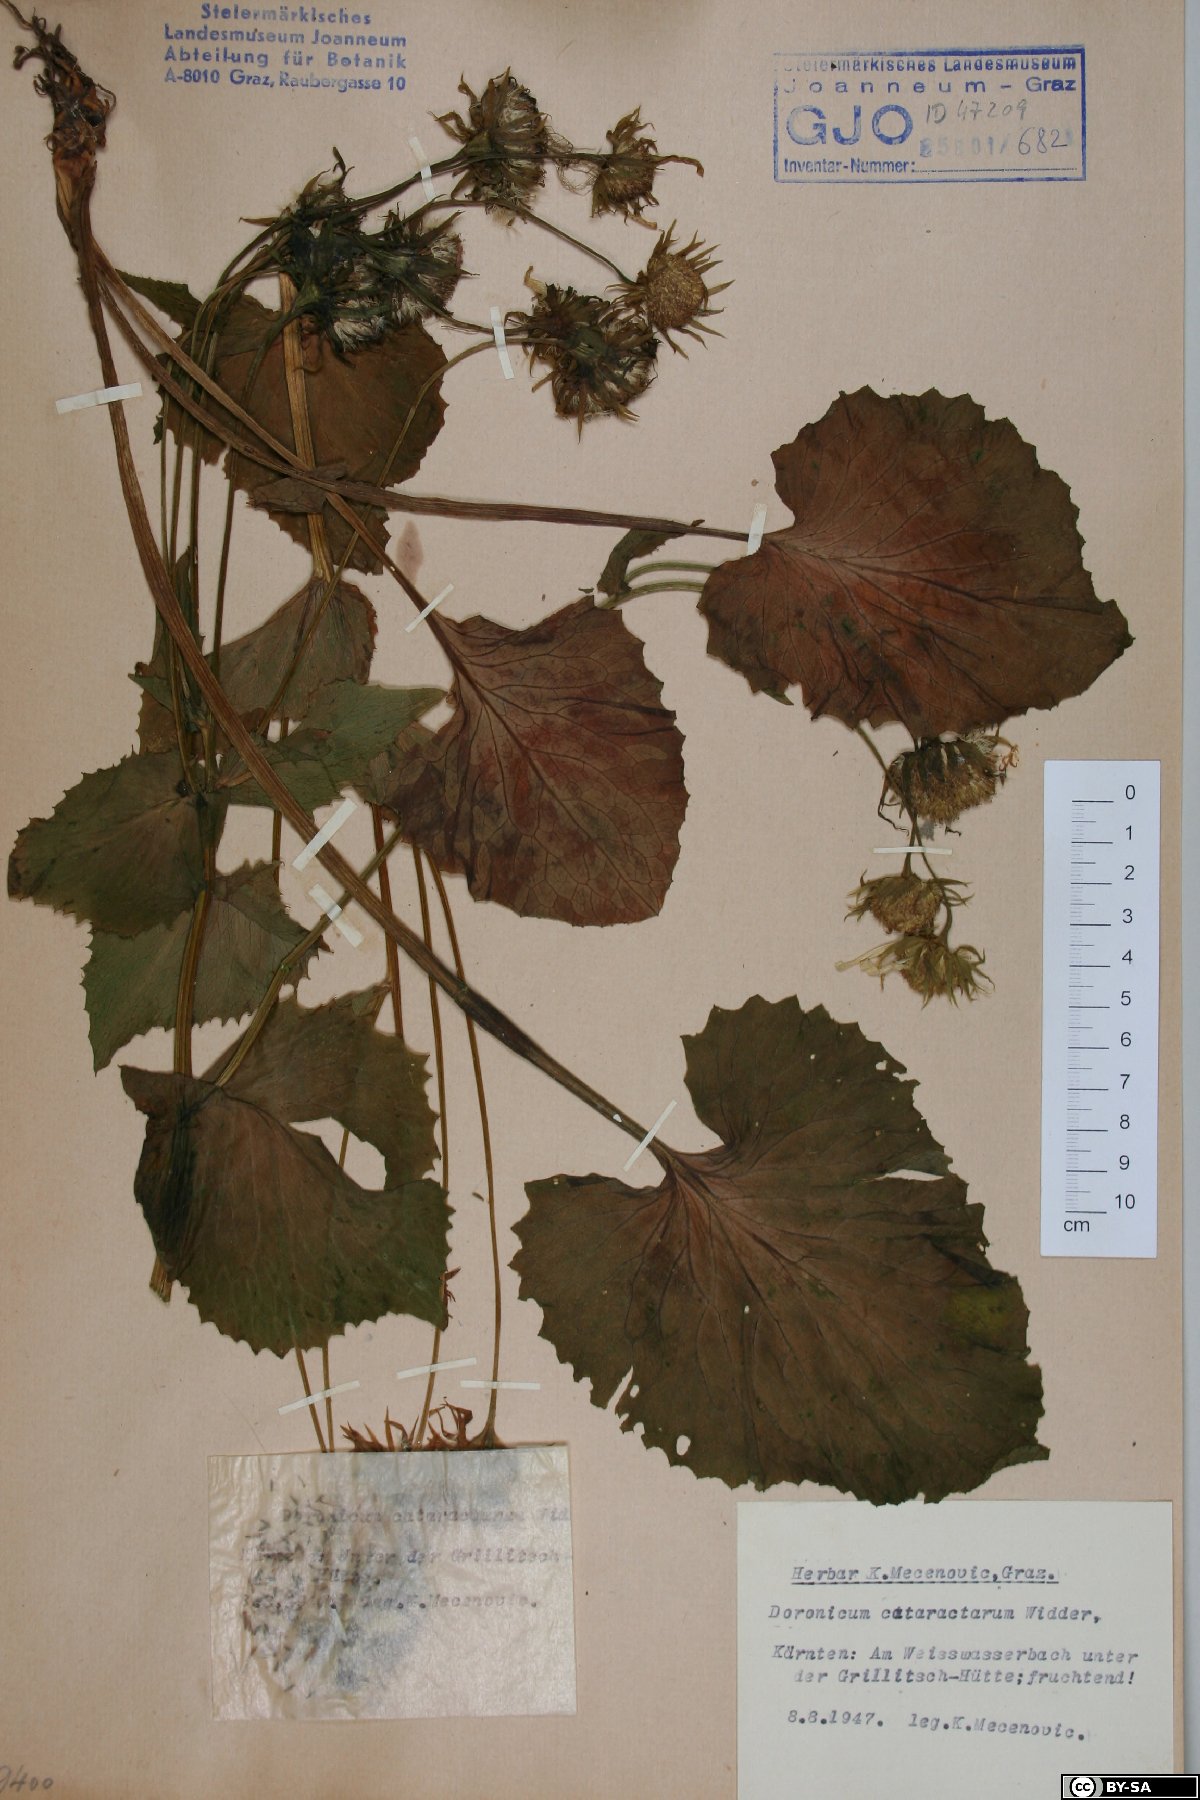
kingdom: Plantae
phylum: Tracheophyta
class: Magnoliopsida
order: Asterales
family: Asteraceae
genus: Doronicum
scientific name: Doronicum cataractarum
